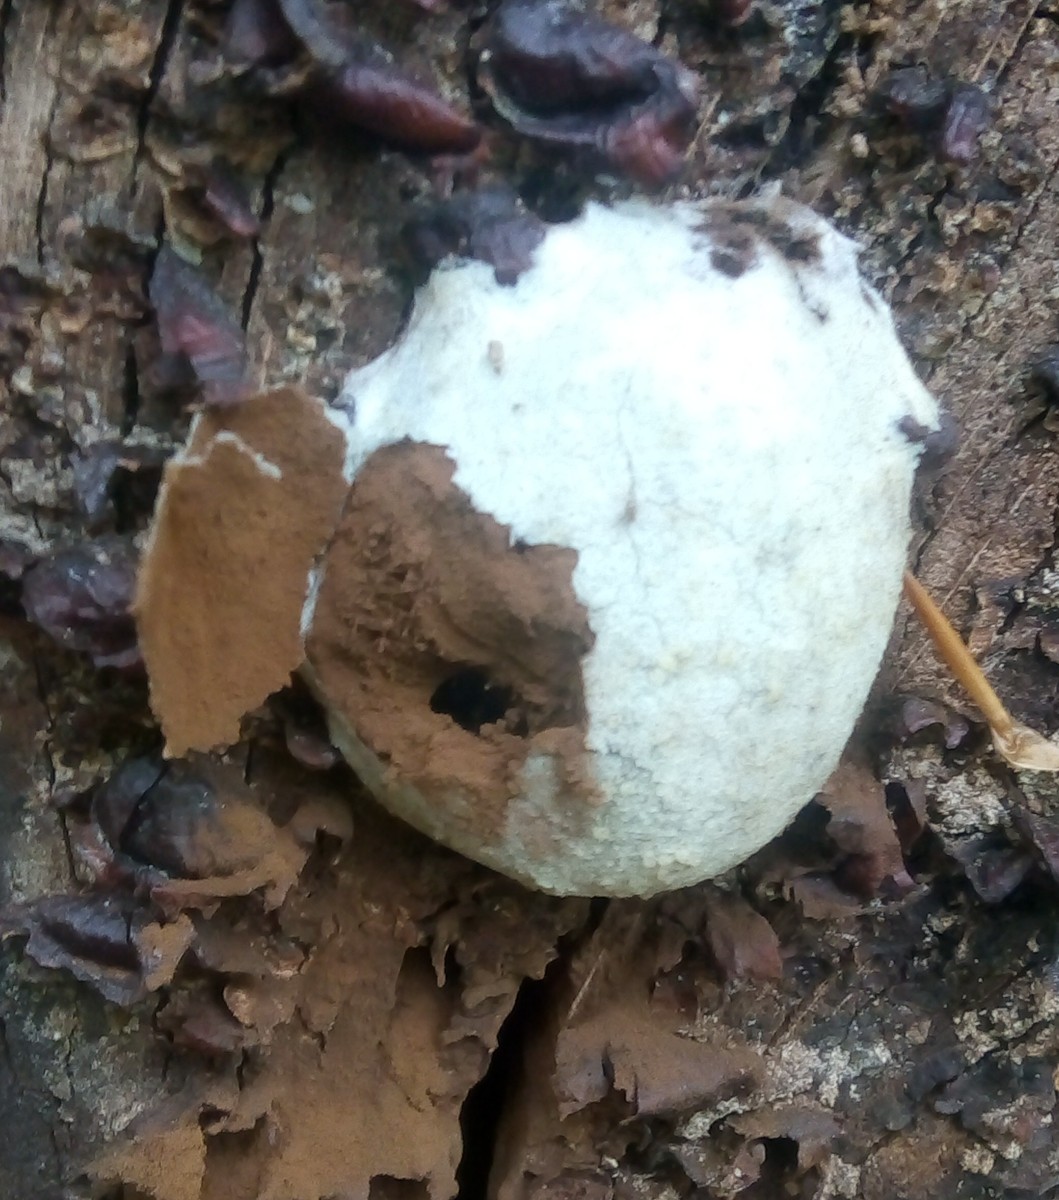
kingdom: Protozoa
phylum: Mycetozoa
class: Myxomycetes
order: Cribrariales
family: Tubiferaceae
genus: Reticularia
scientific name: Reticularia lycoperdon
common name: skinnende støvpude
